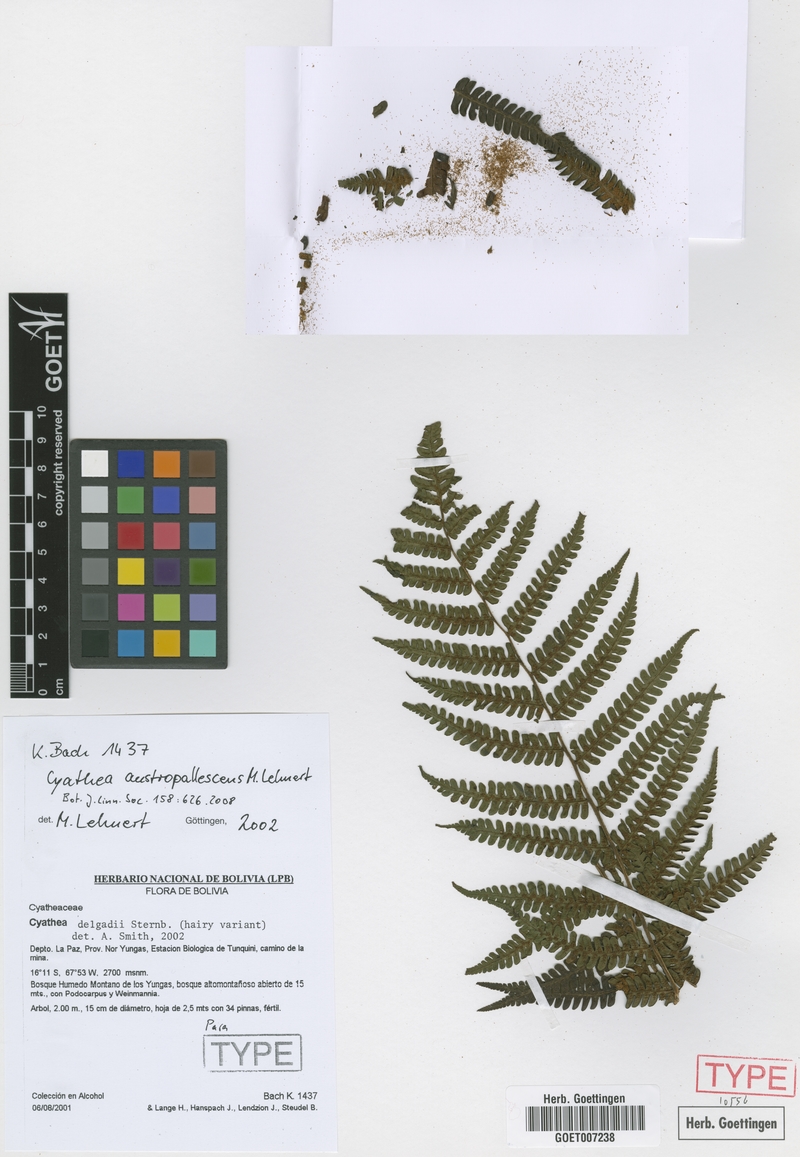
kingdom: Plantae
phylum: Tracheophyta
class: Polypodiopsida
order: Cyatheales
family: Cyatheaceae
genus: Cyathea
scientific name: Cyathea austropallescens
